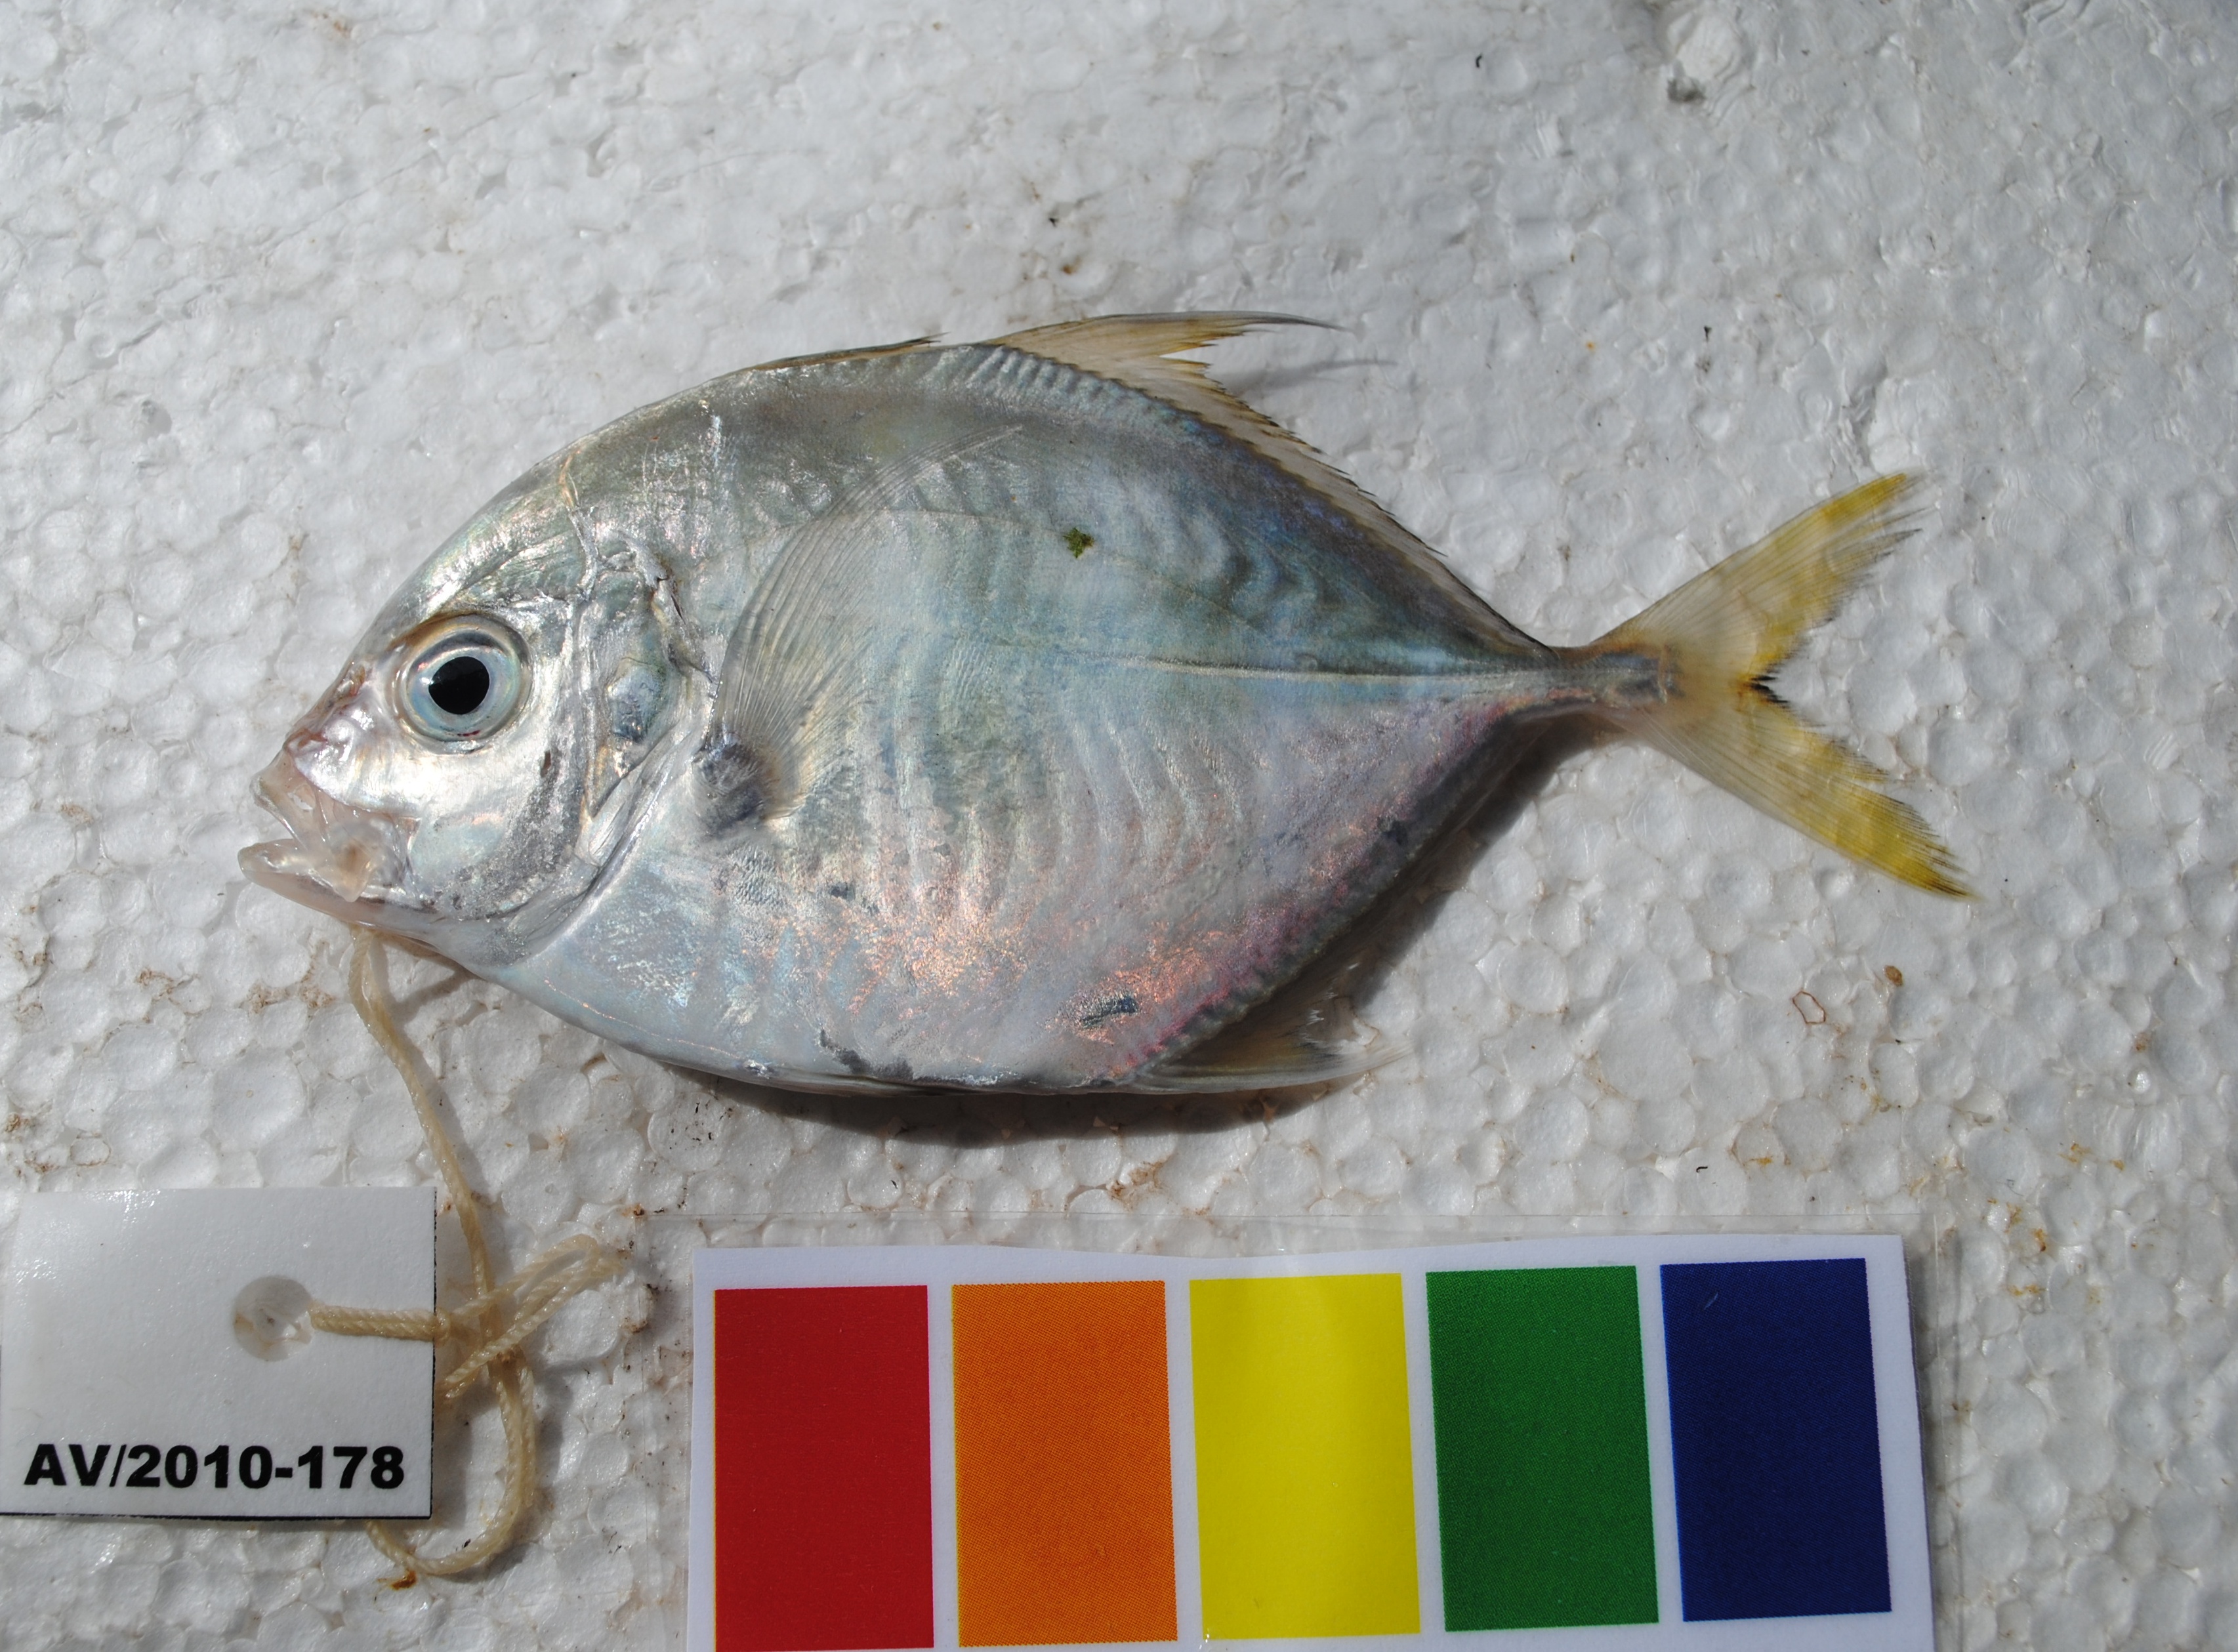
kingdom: Animalia
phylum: Chordata
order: Perciformes
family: Carangidae
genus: Carangoides
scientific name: Carangoides coeruleopinnatus
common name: Coastal trevally
